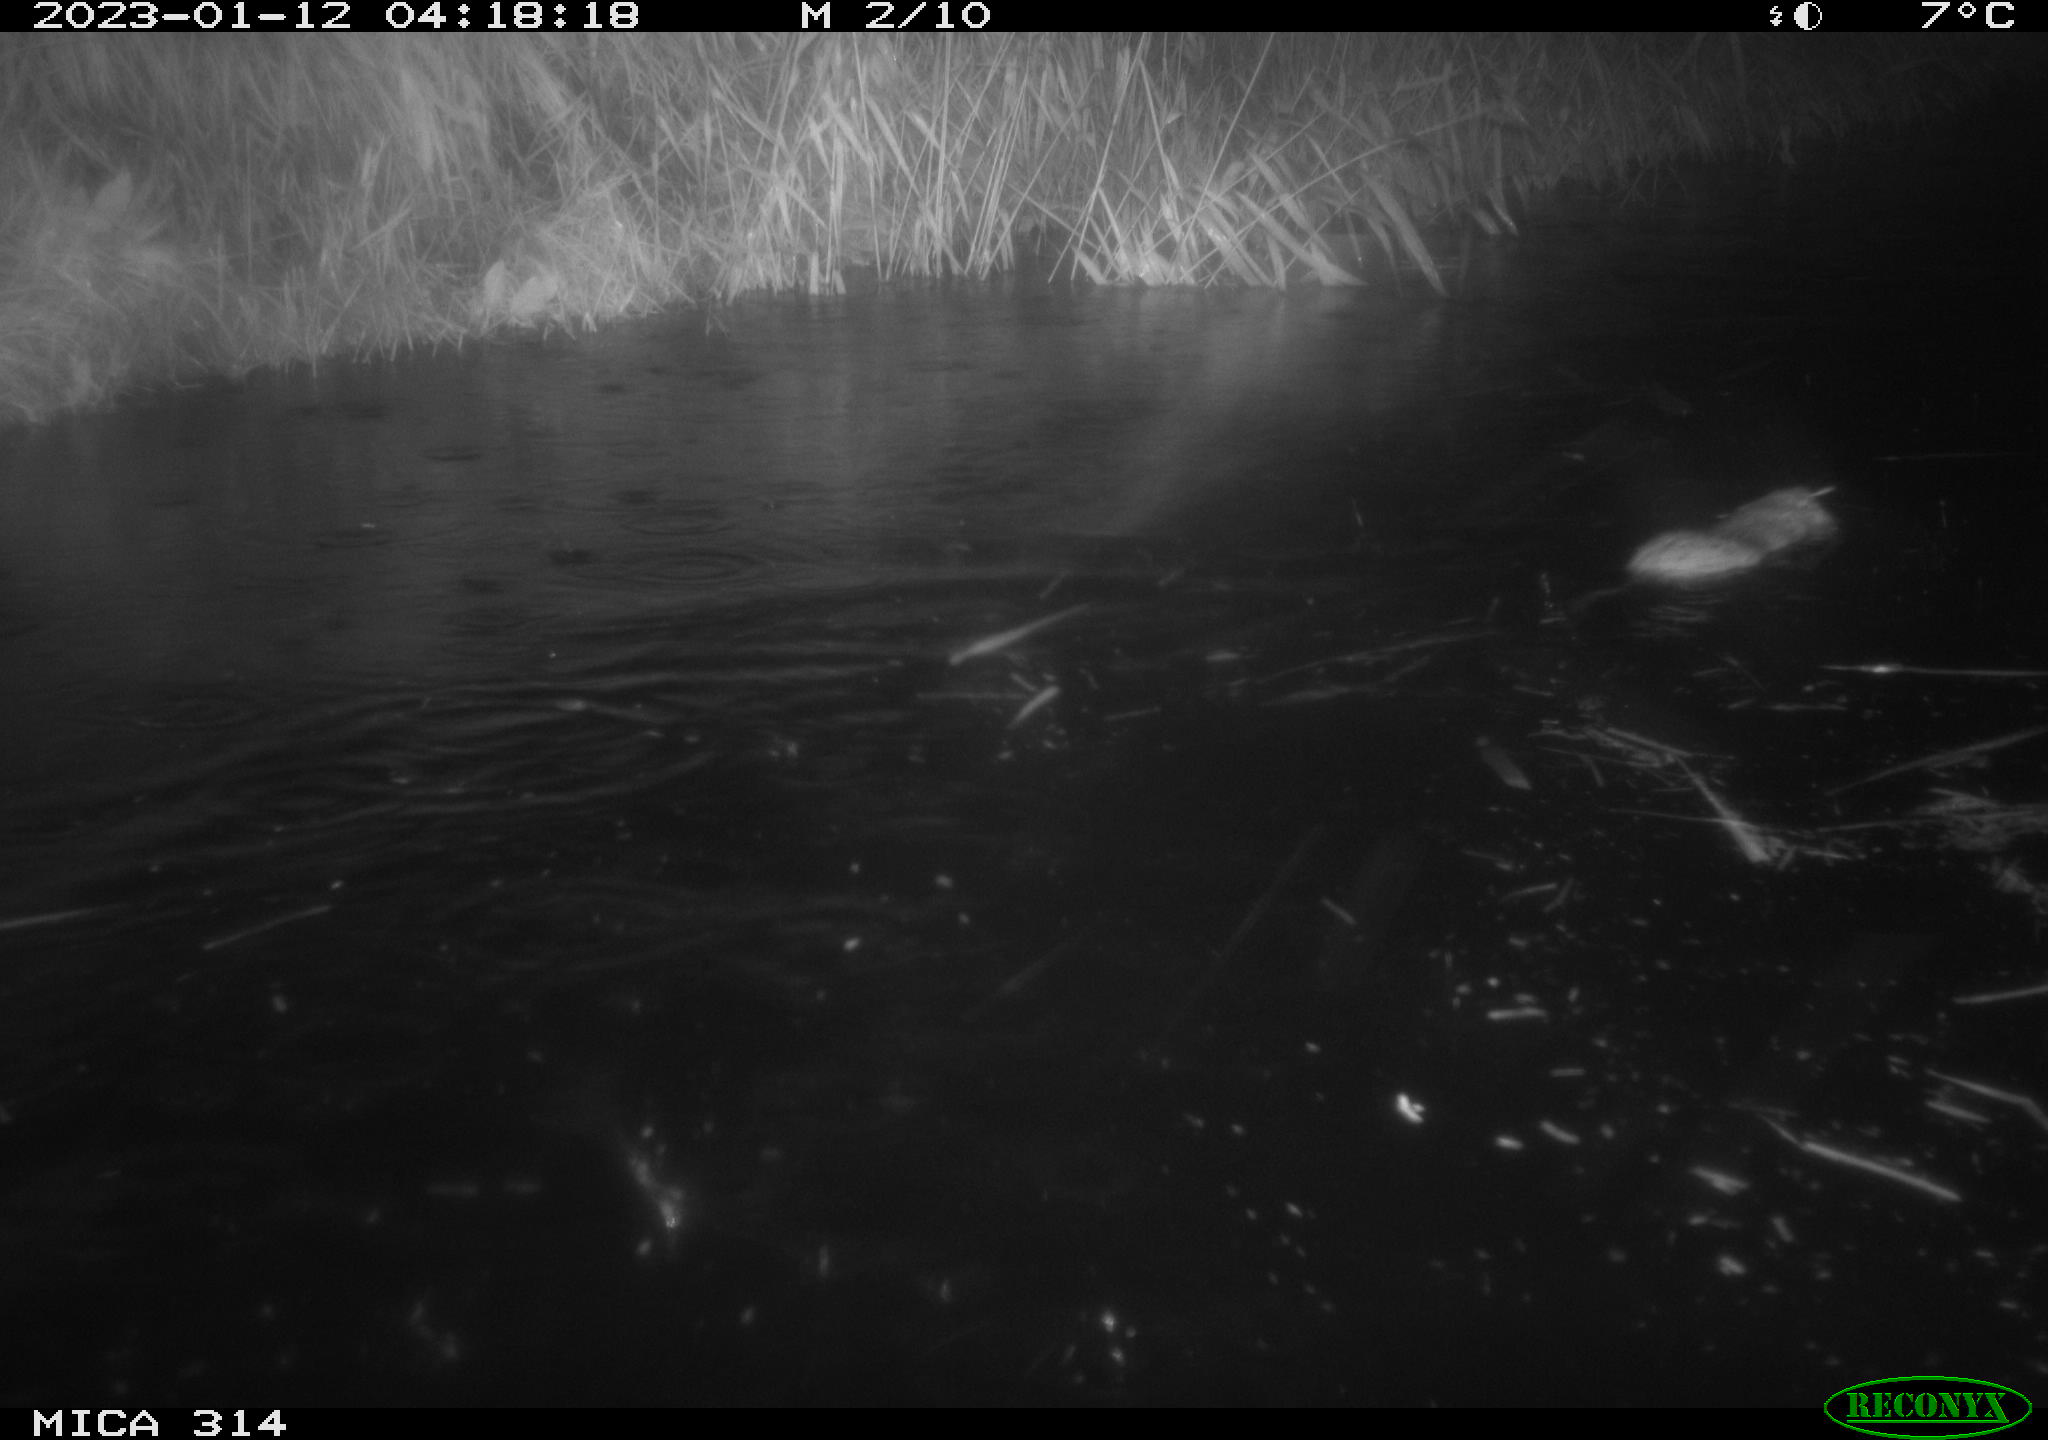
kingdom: Animalia
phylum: Chordata
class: Mammalia
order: Rodentia
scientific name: Rodentia
